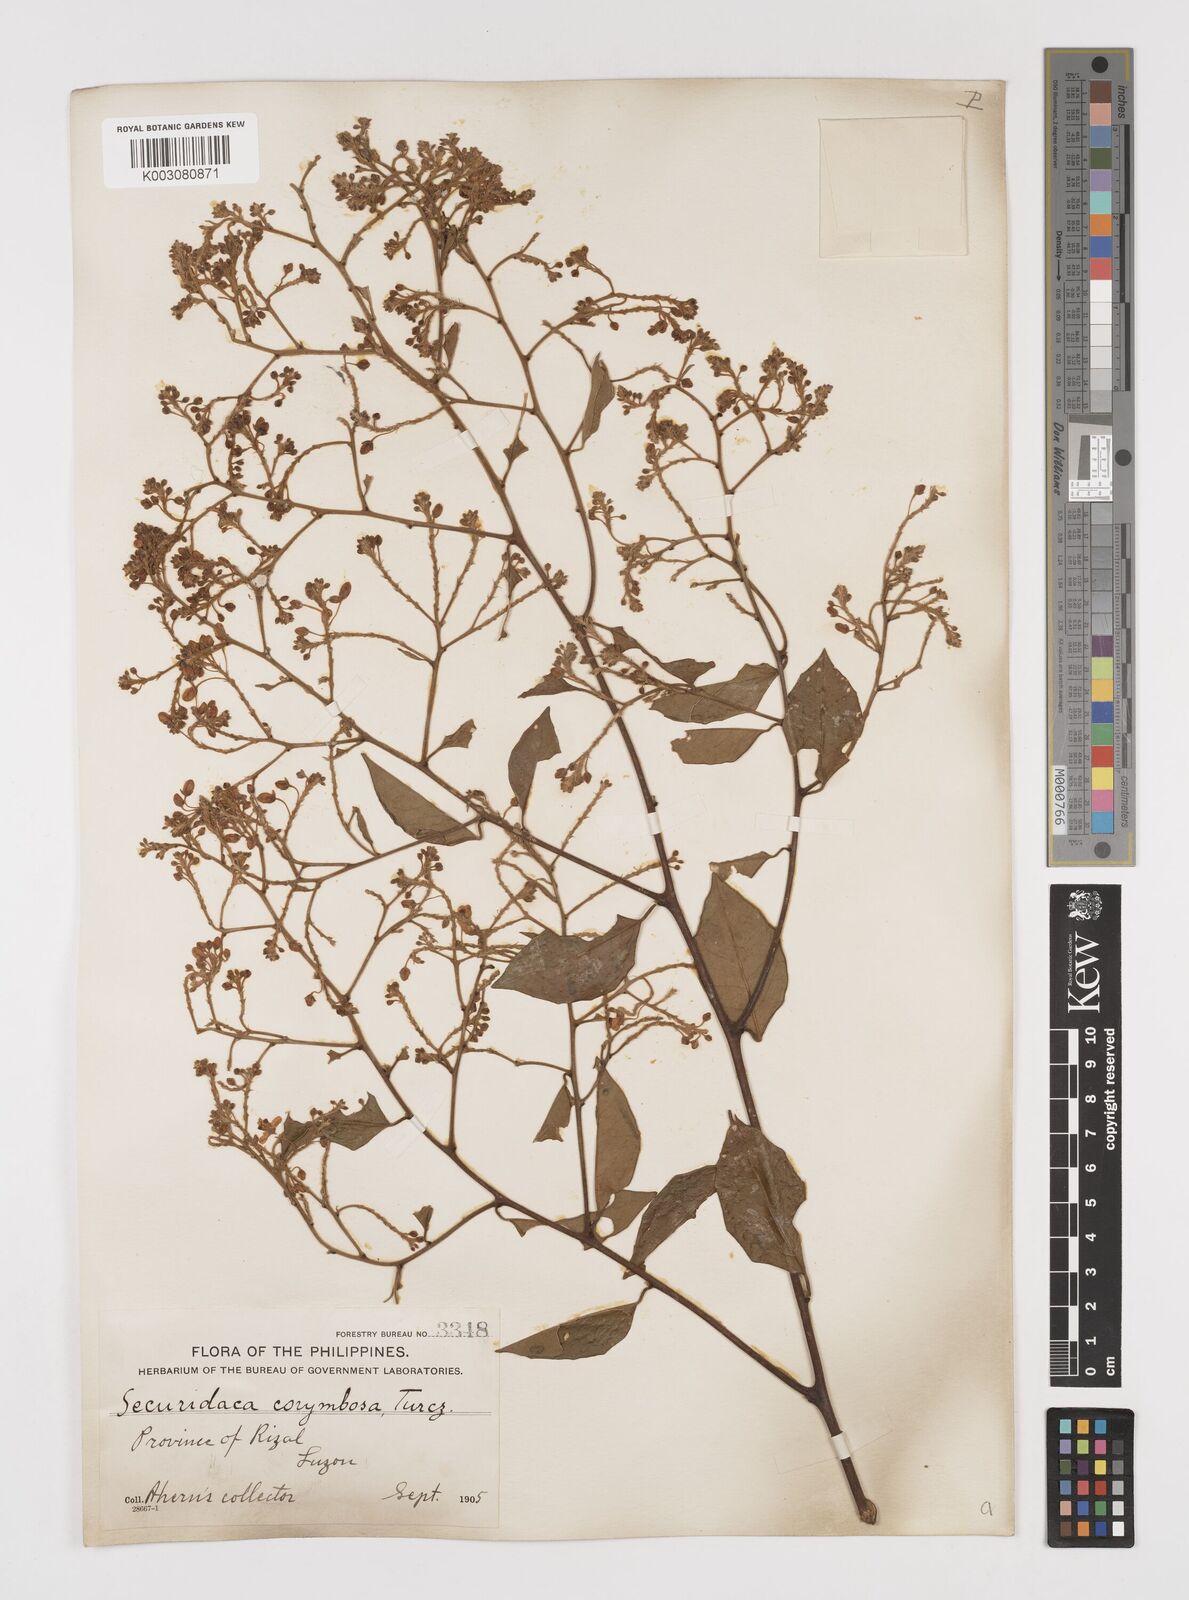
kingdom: Plantae
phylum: Tracheophyta
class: Magnoliopsida
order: Fabales
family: Polygalaceae
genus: Securidaca
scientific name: Securidaca inappendiculata
